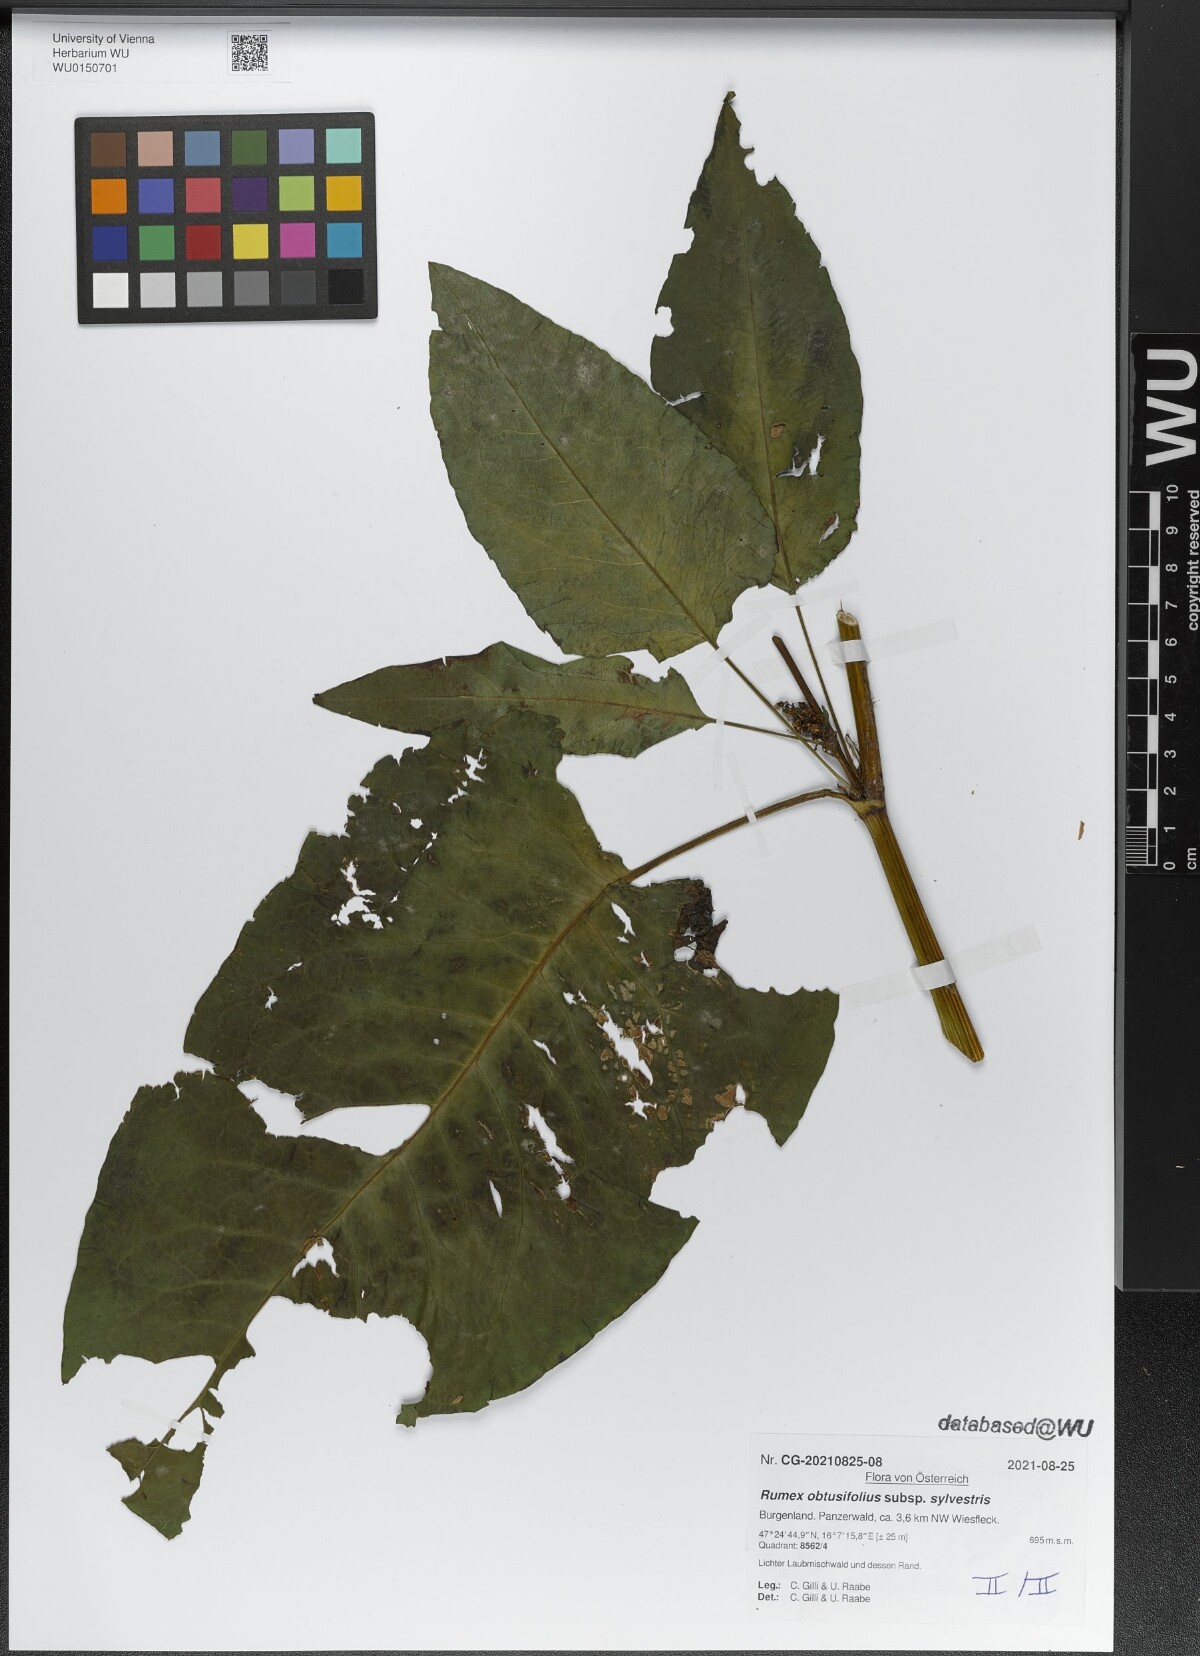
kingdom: Plantae
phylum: Tracheophyta
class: Magnoliopsida
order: Caryophyllales
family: Polygonaceae
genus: Rumex
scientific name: Rumex obtusifolius
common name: Bitter dock
